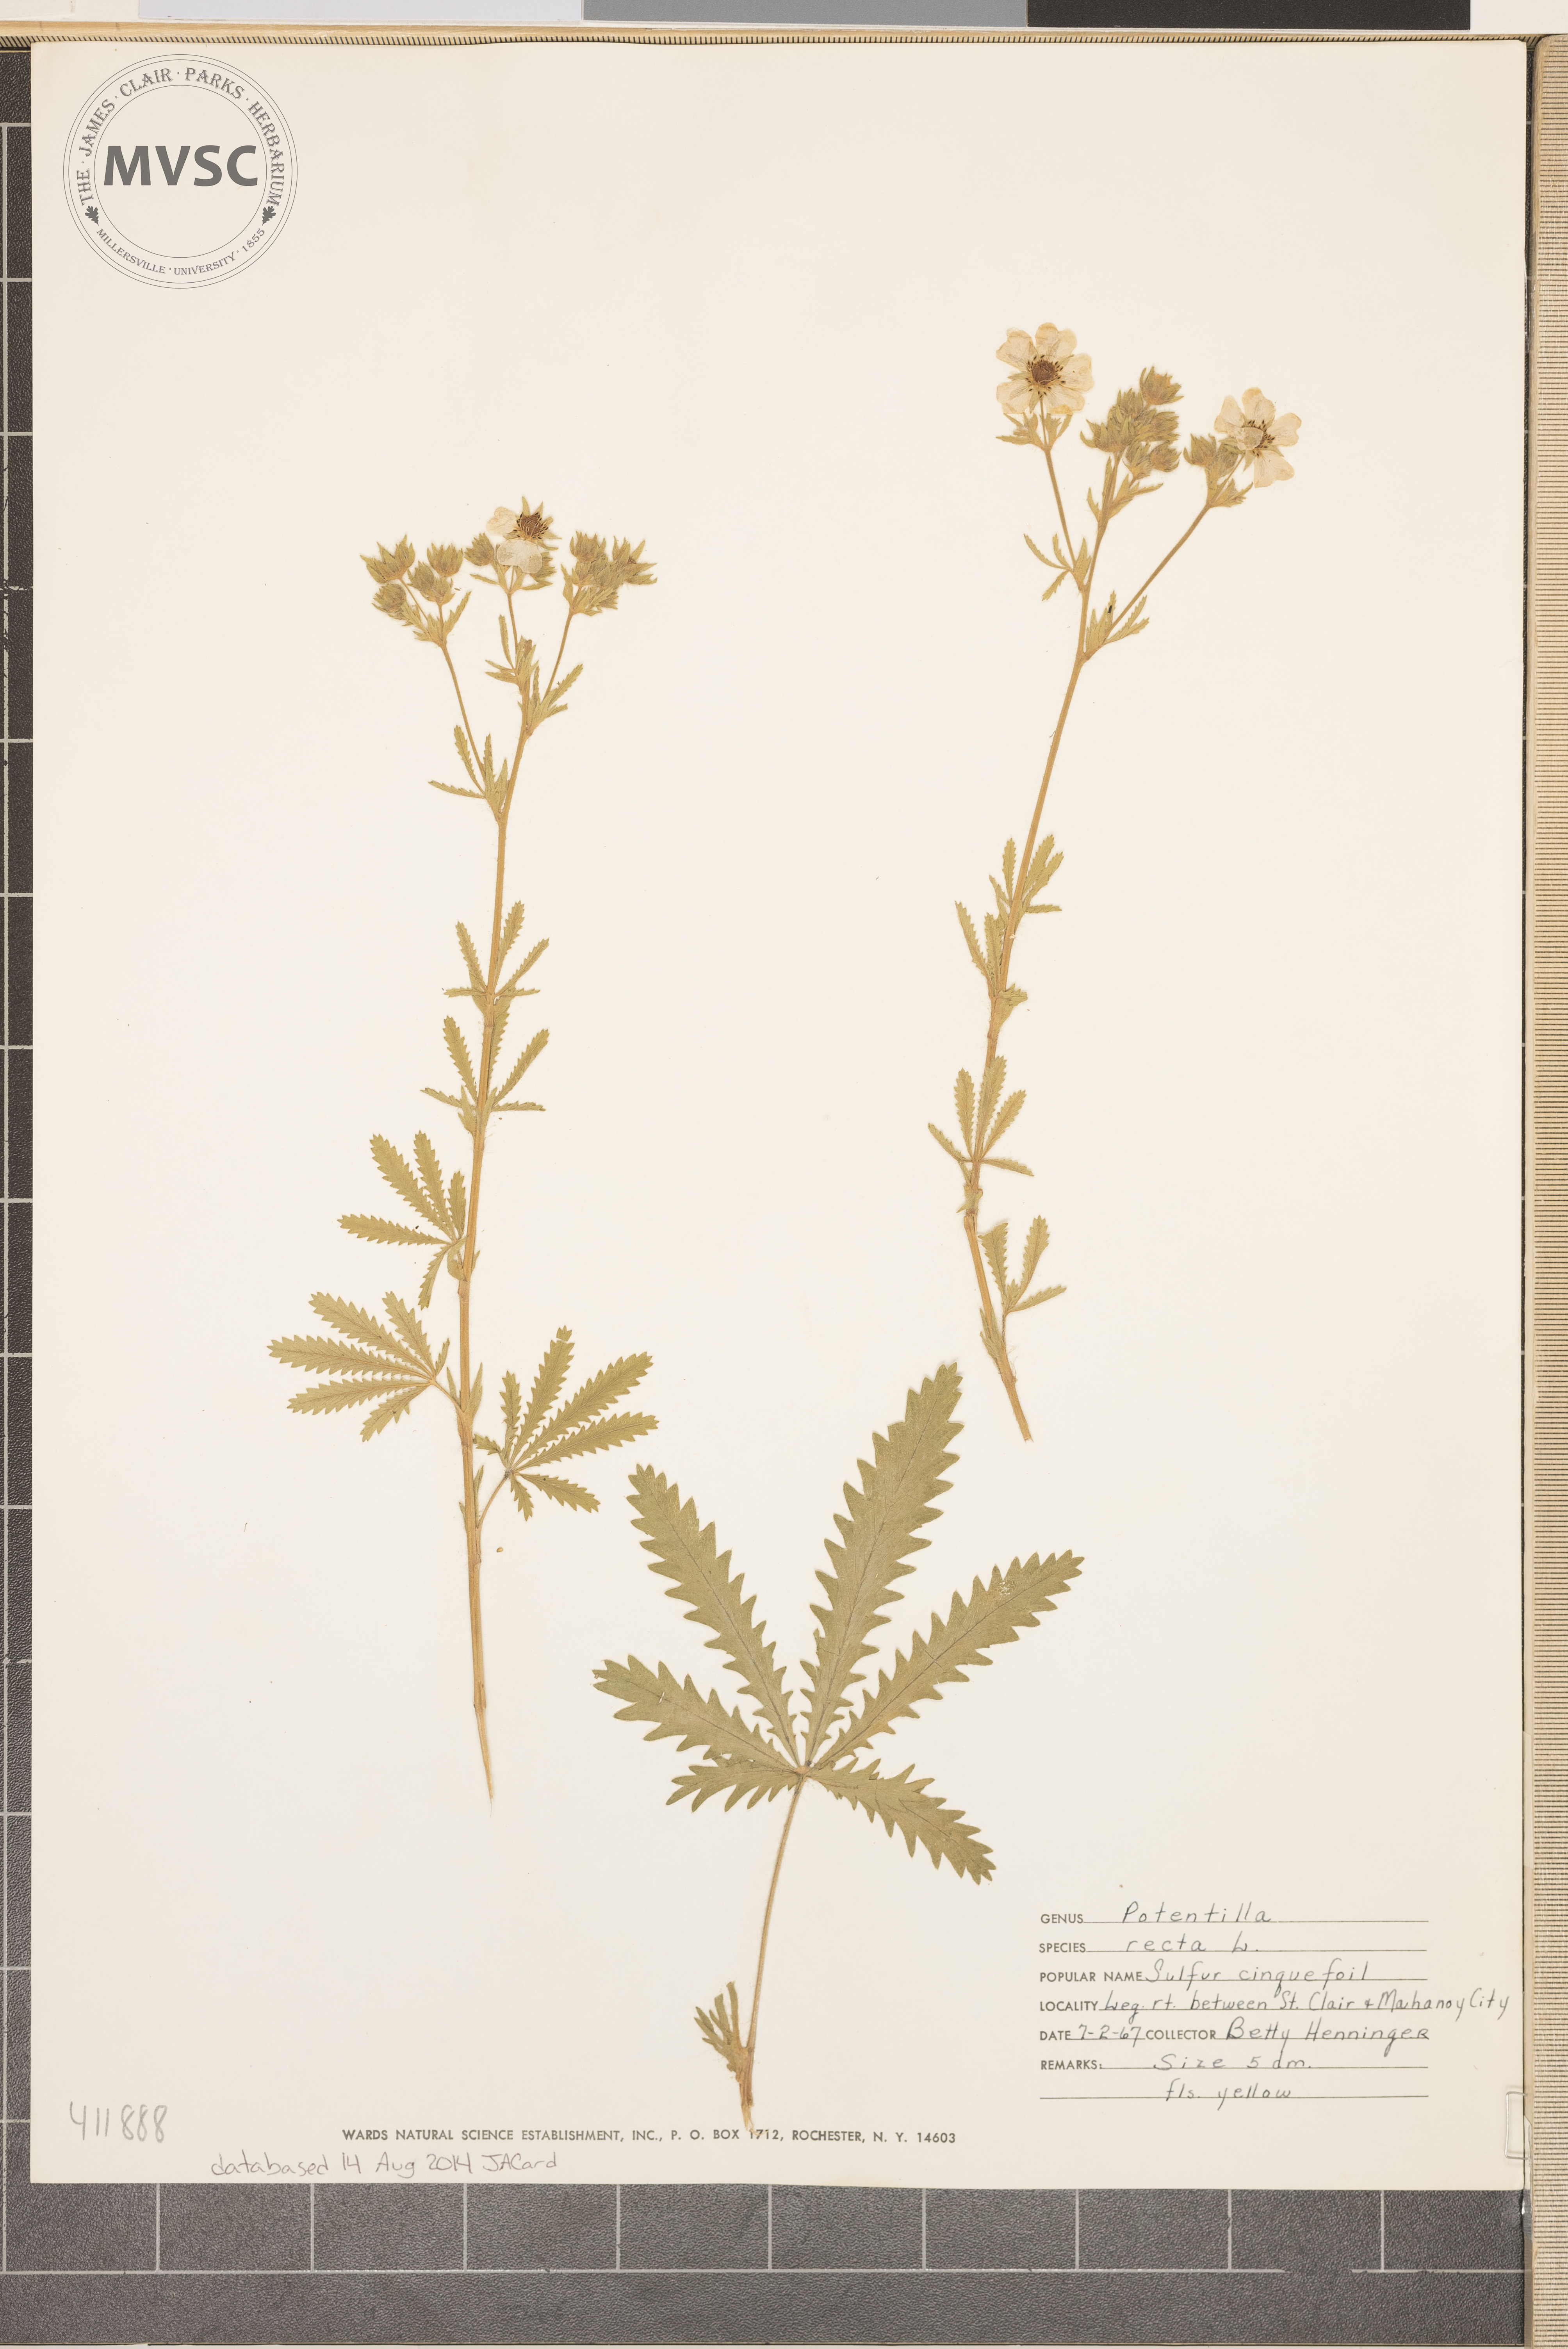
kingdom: Plantae
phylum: Tracheophyta
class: Magnoliopsida
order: Rosales
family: Rosaceae
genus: Potentilla
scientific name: Potentilla recta
